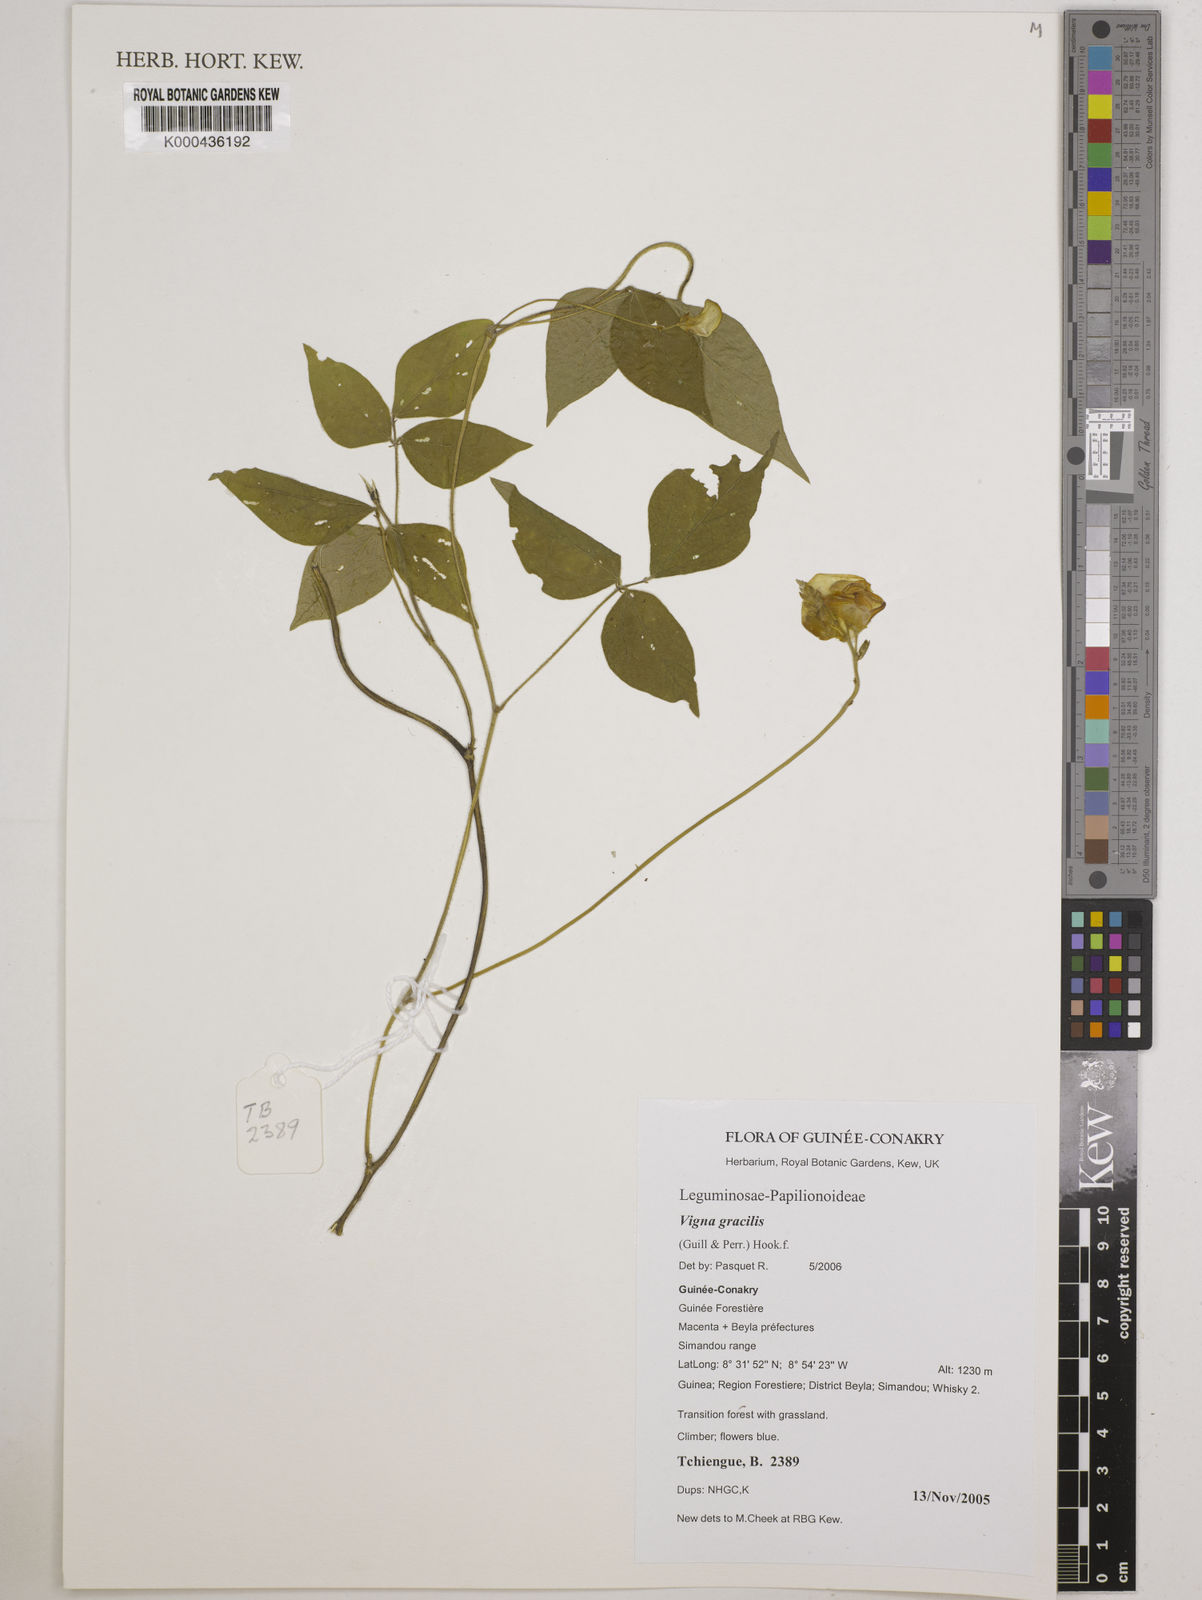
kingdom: Plantae
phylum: Tracheophyta
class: Magnoliopsida
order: Fabales
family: Fabaceae
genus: Vigna
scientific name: Vigna gracilis
